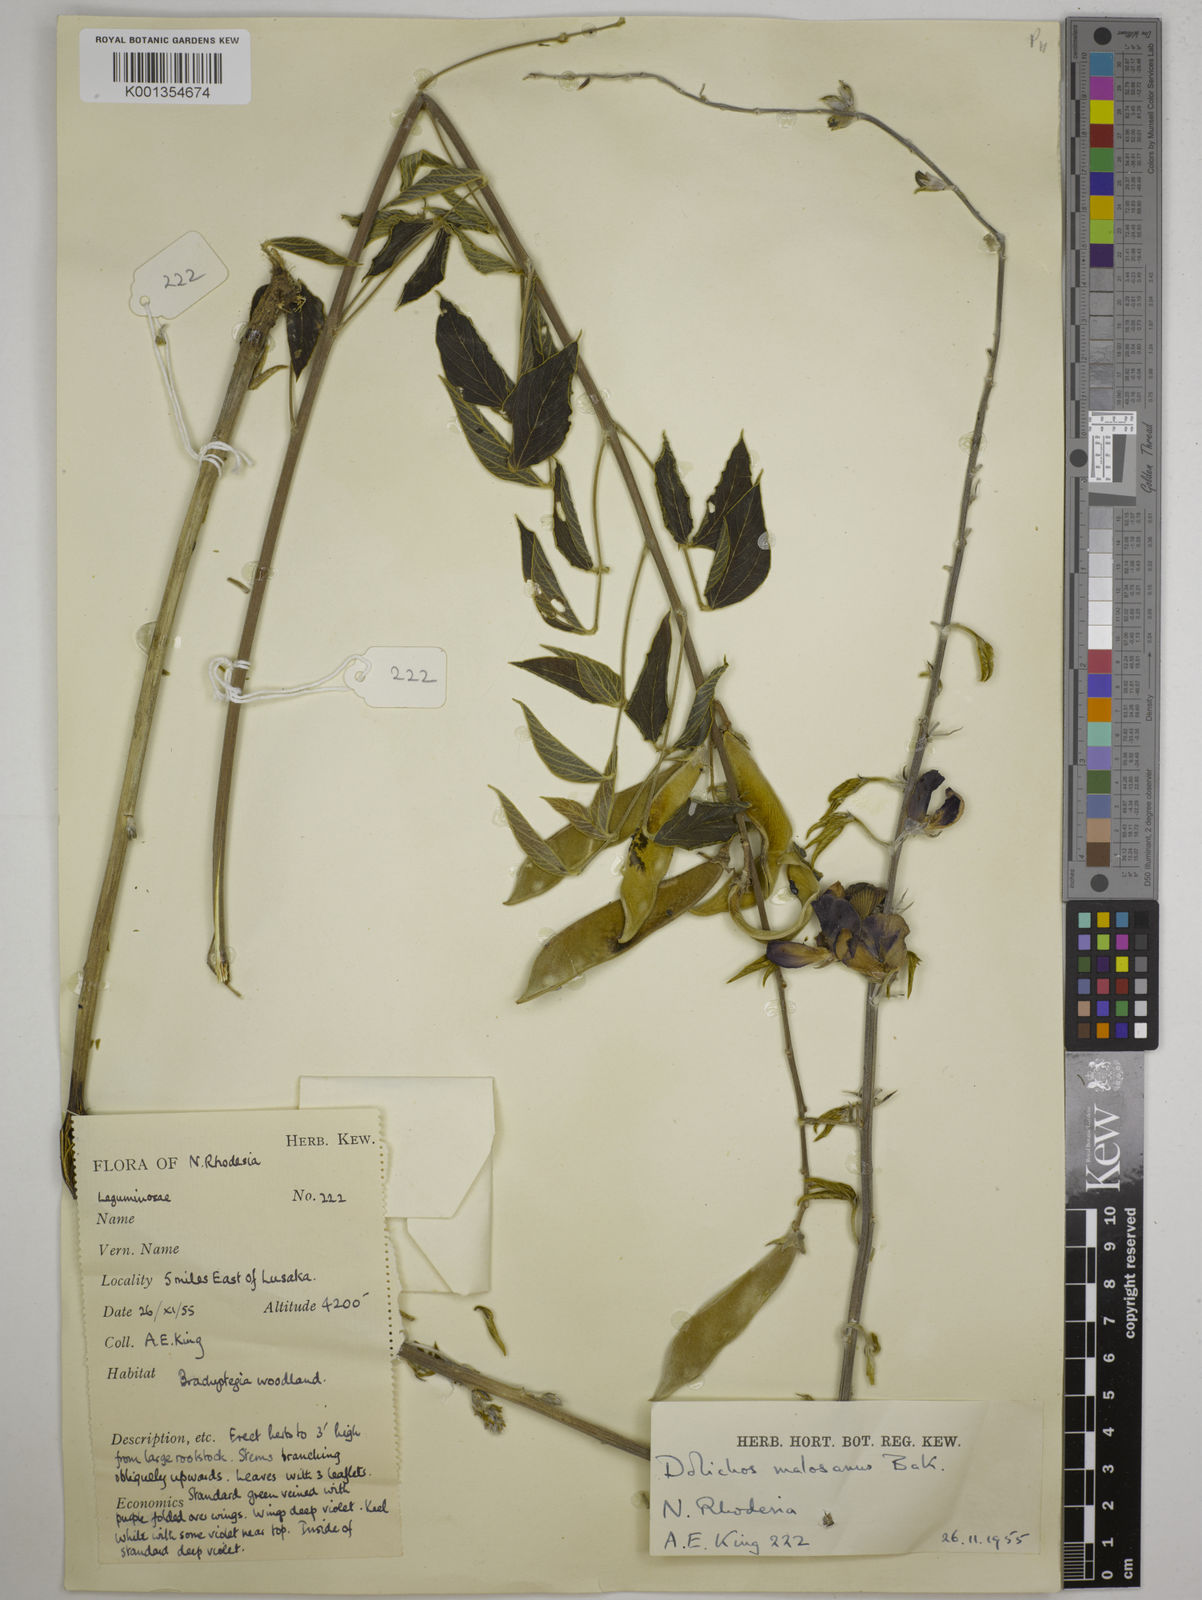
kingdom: Plantae
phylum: Tracheophyta
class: Magnoliopsida
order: Fabales
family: Fabaceae
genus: Dolichos
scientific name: Dolichos kilimandscharicus
